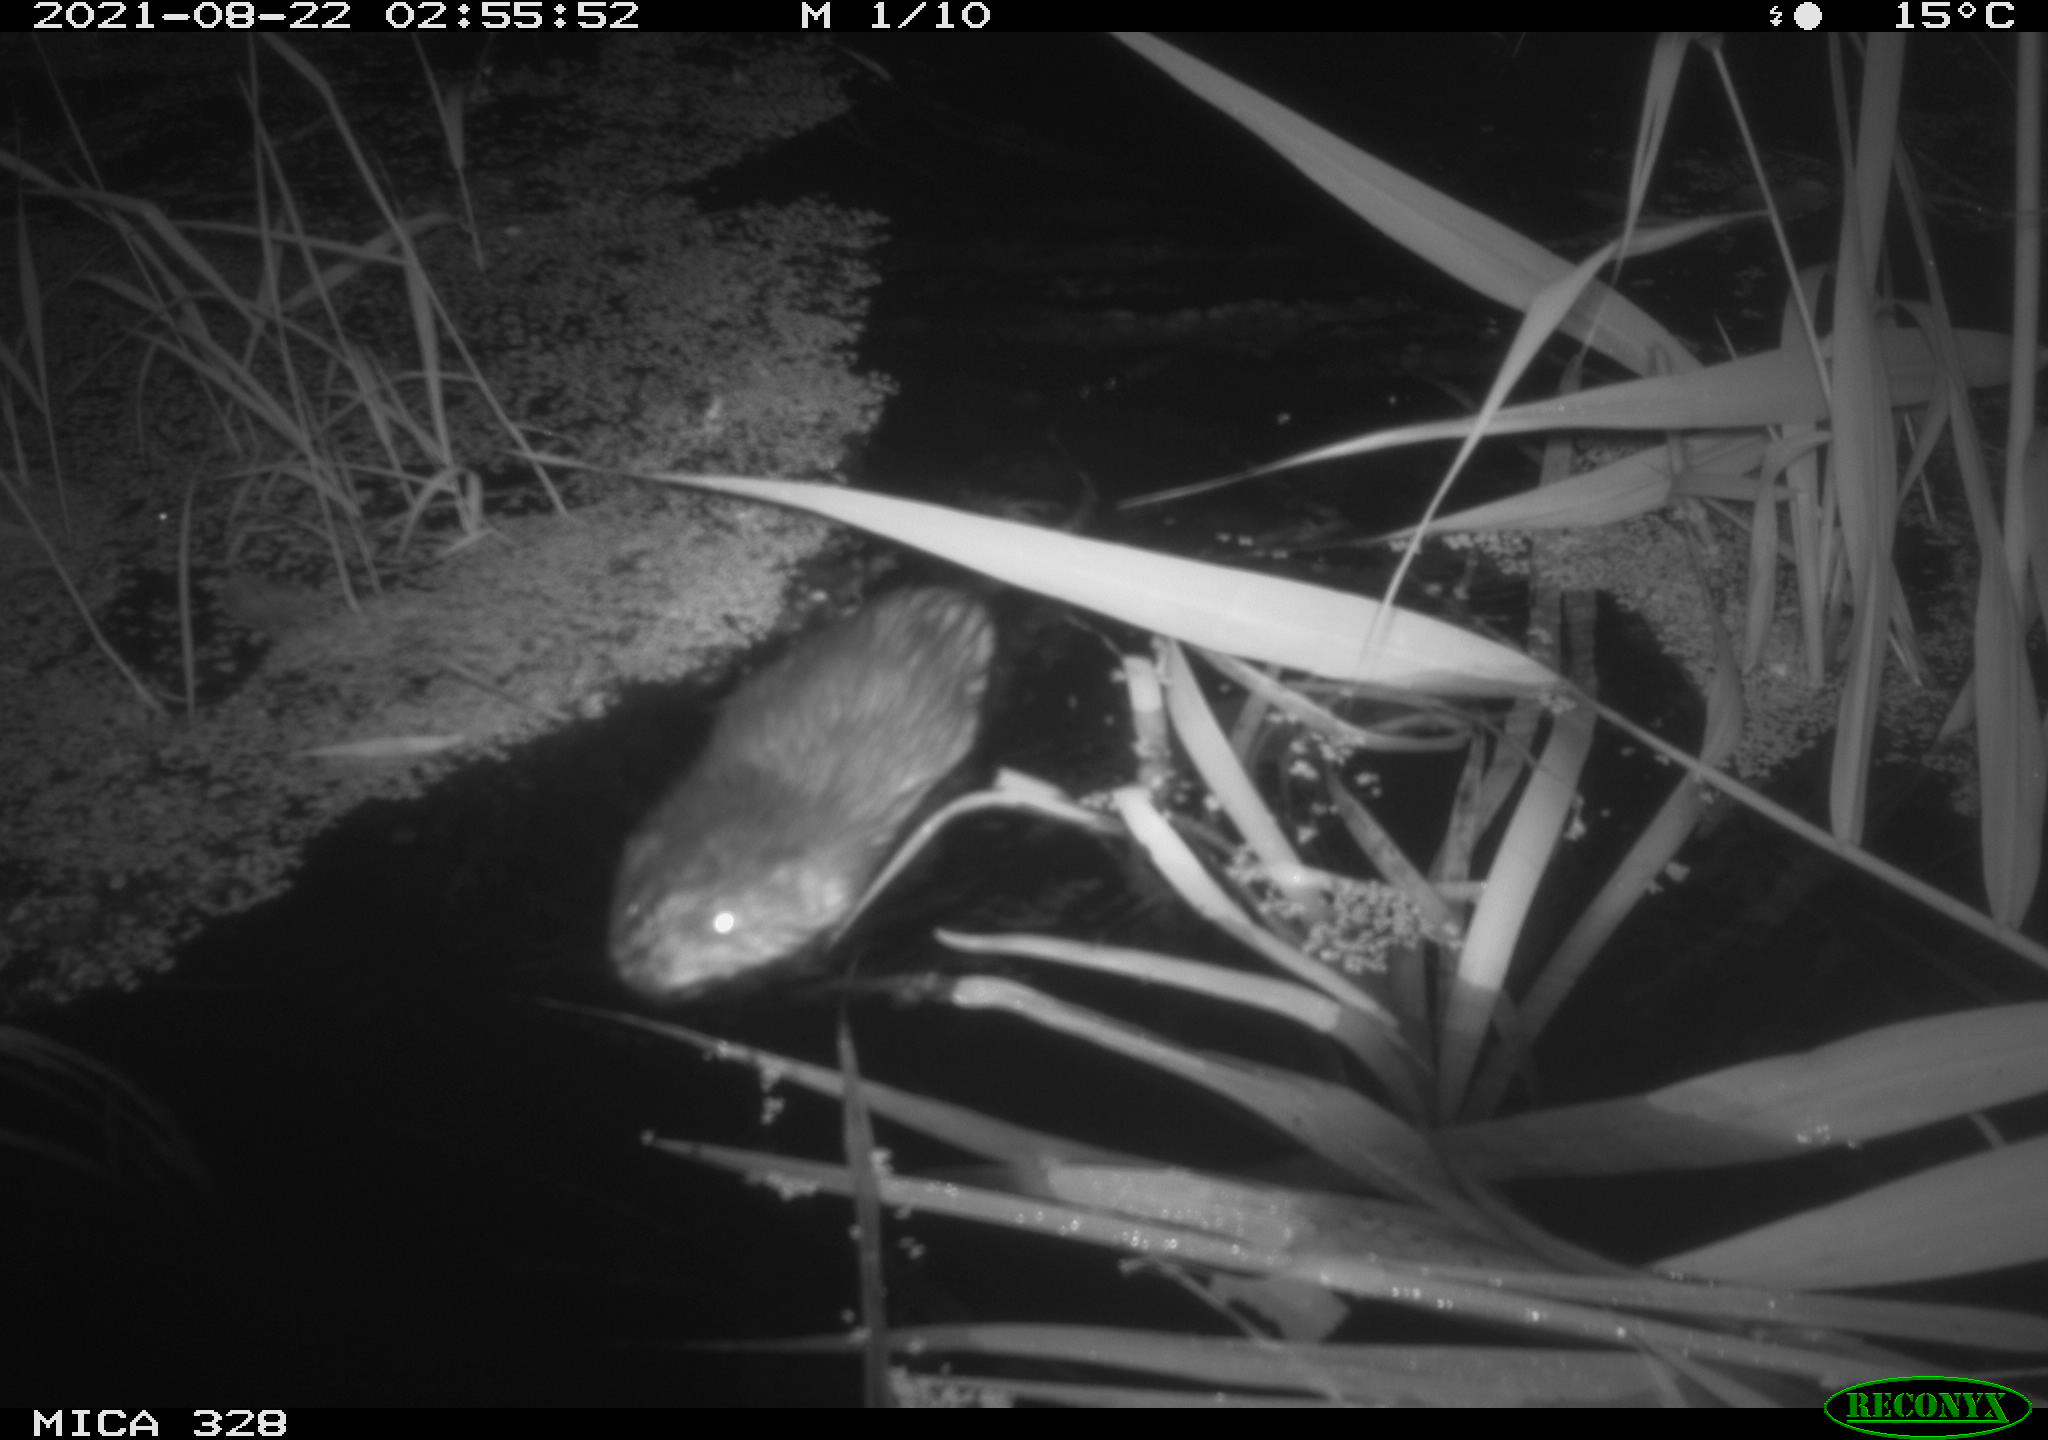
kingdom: Animalia
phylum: Chordata
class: Mammalia
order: Rodentia
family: Cricetidae
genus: Ondatra
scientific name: Ondatra zibethicus
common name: Muskrat
